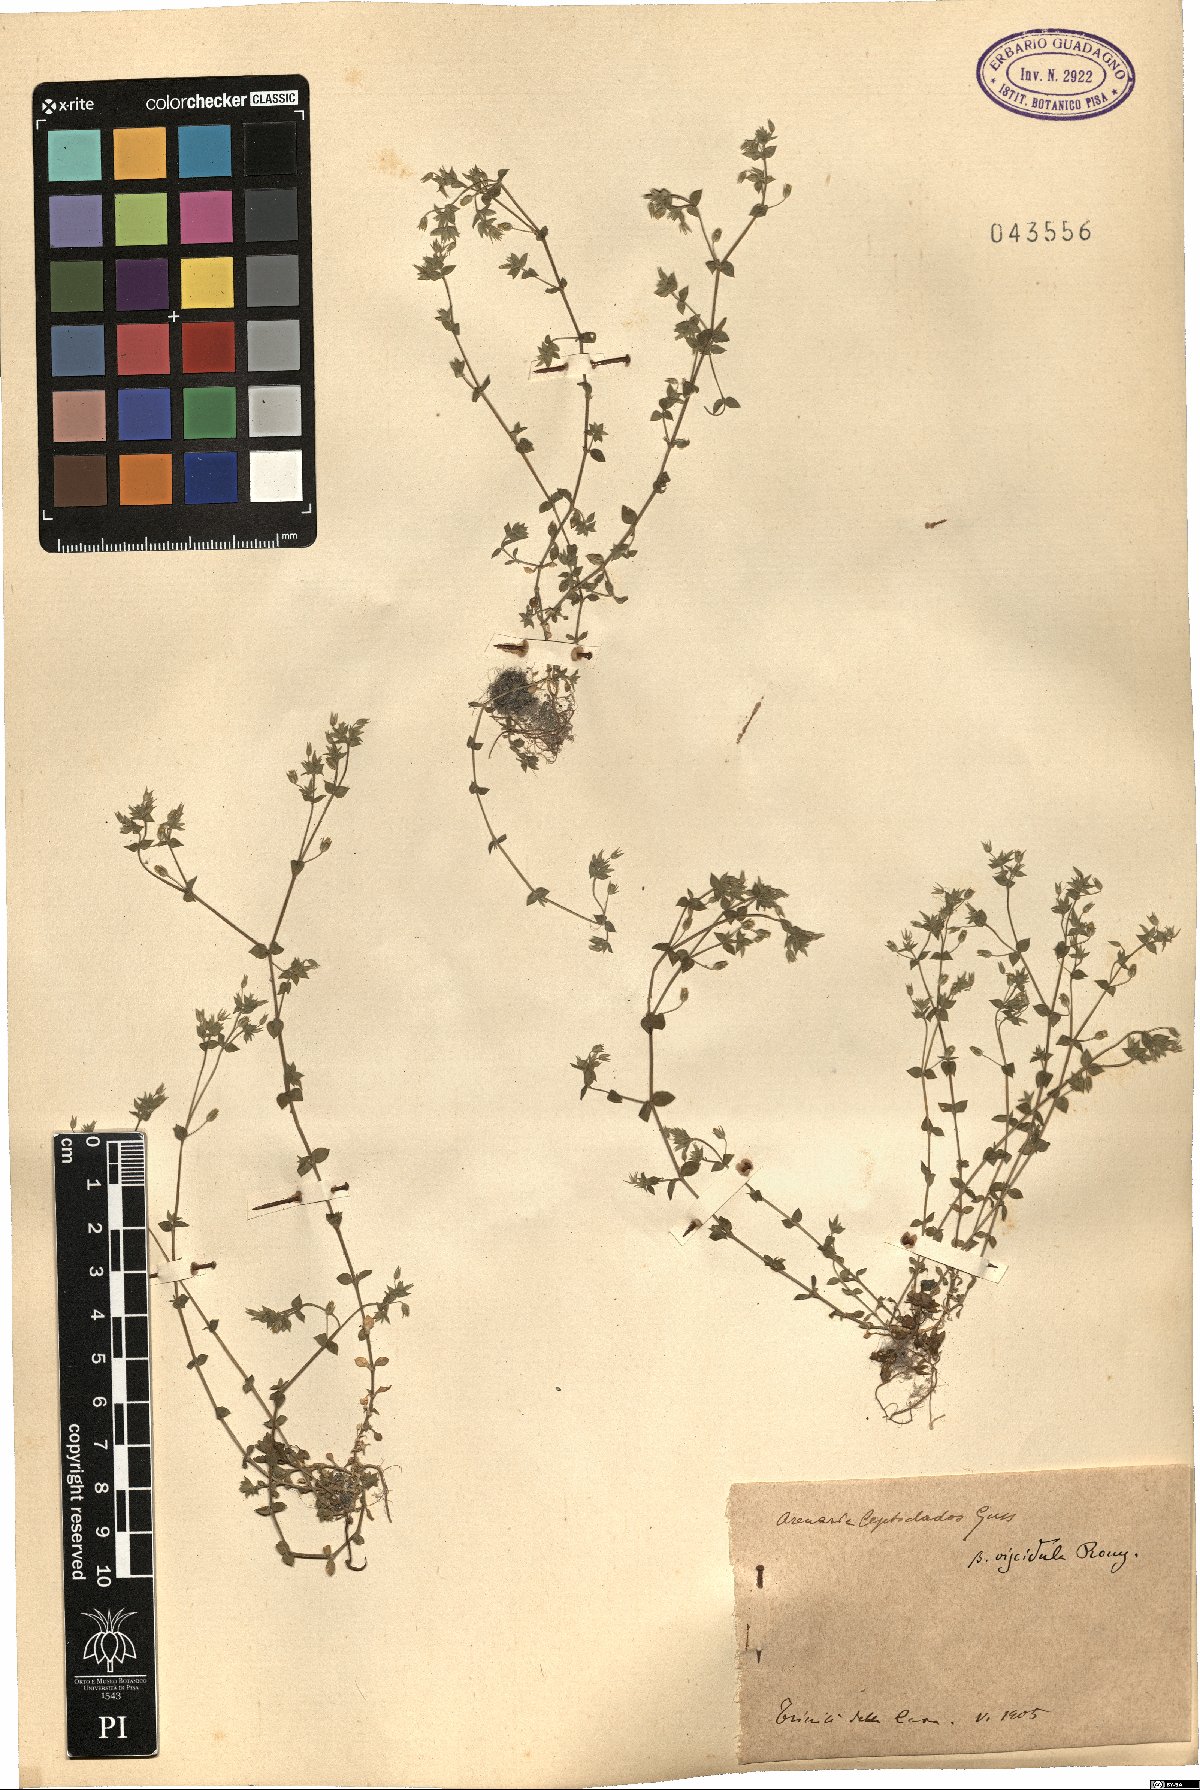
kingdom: Plantae
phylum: Tracheophyta
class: Magnoliopsida
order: Caryophyllales
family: Caryophyllaceae
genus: Arenaria
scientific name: Arenaria leptoclados
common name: Thyme-leaved sandwort
